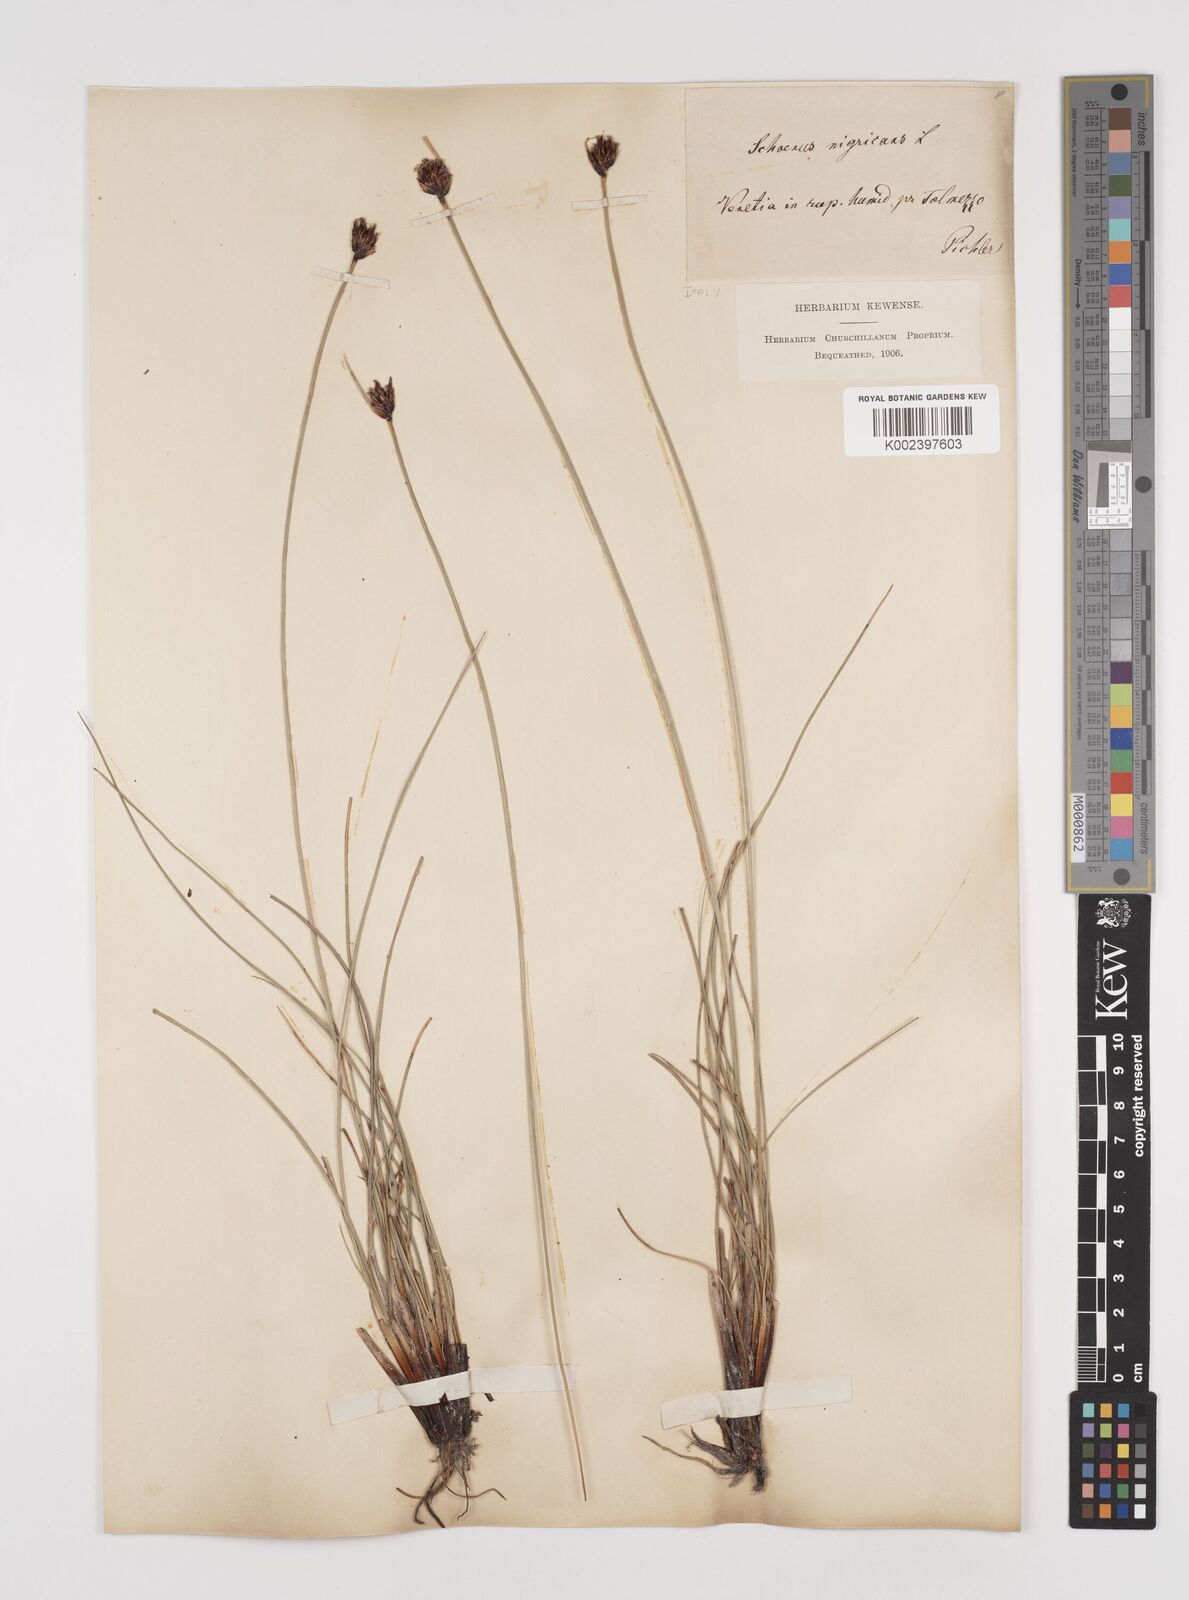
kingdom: Plantae
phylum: Tracheophyta
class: Liliopsida
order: Poales
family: Cyperaceae
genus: Schoenus
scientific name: Schoenus nigricans
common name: Black bog-rush
